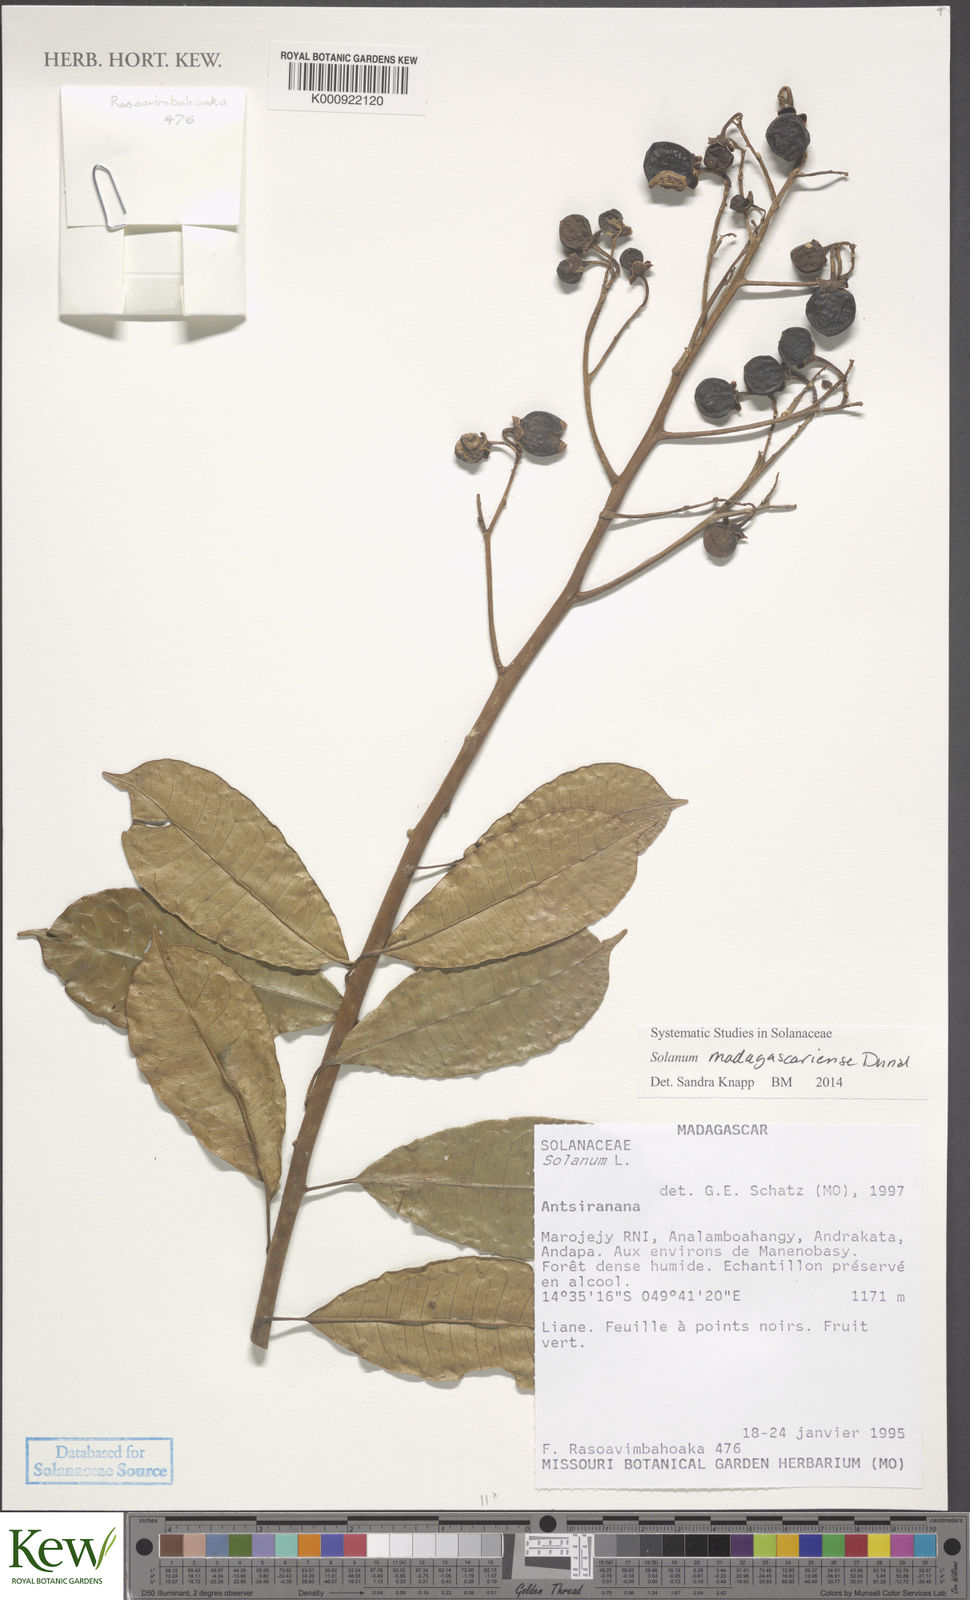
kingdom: Plantae
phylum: Tracheophyta
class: Magnoliopsida
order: Solanales
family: Solanaceae
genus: Solanum
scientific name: Solanum madagascariense
